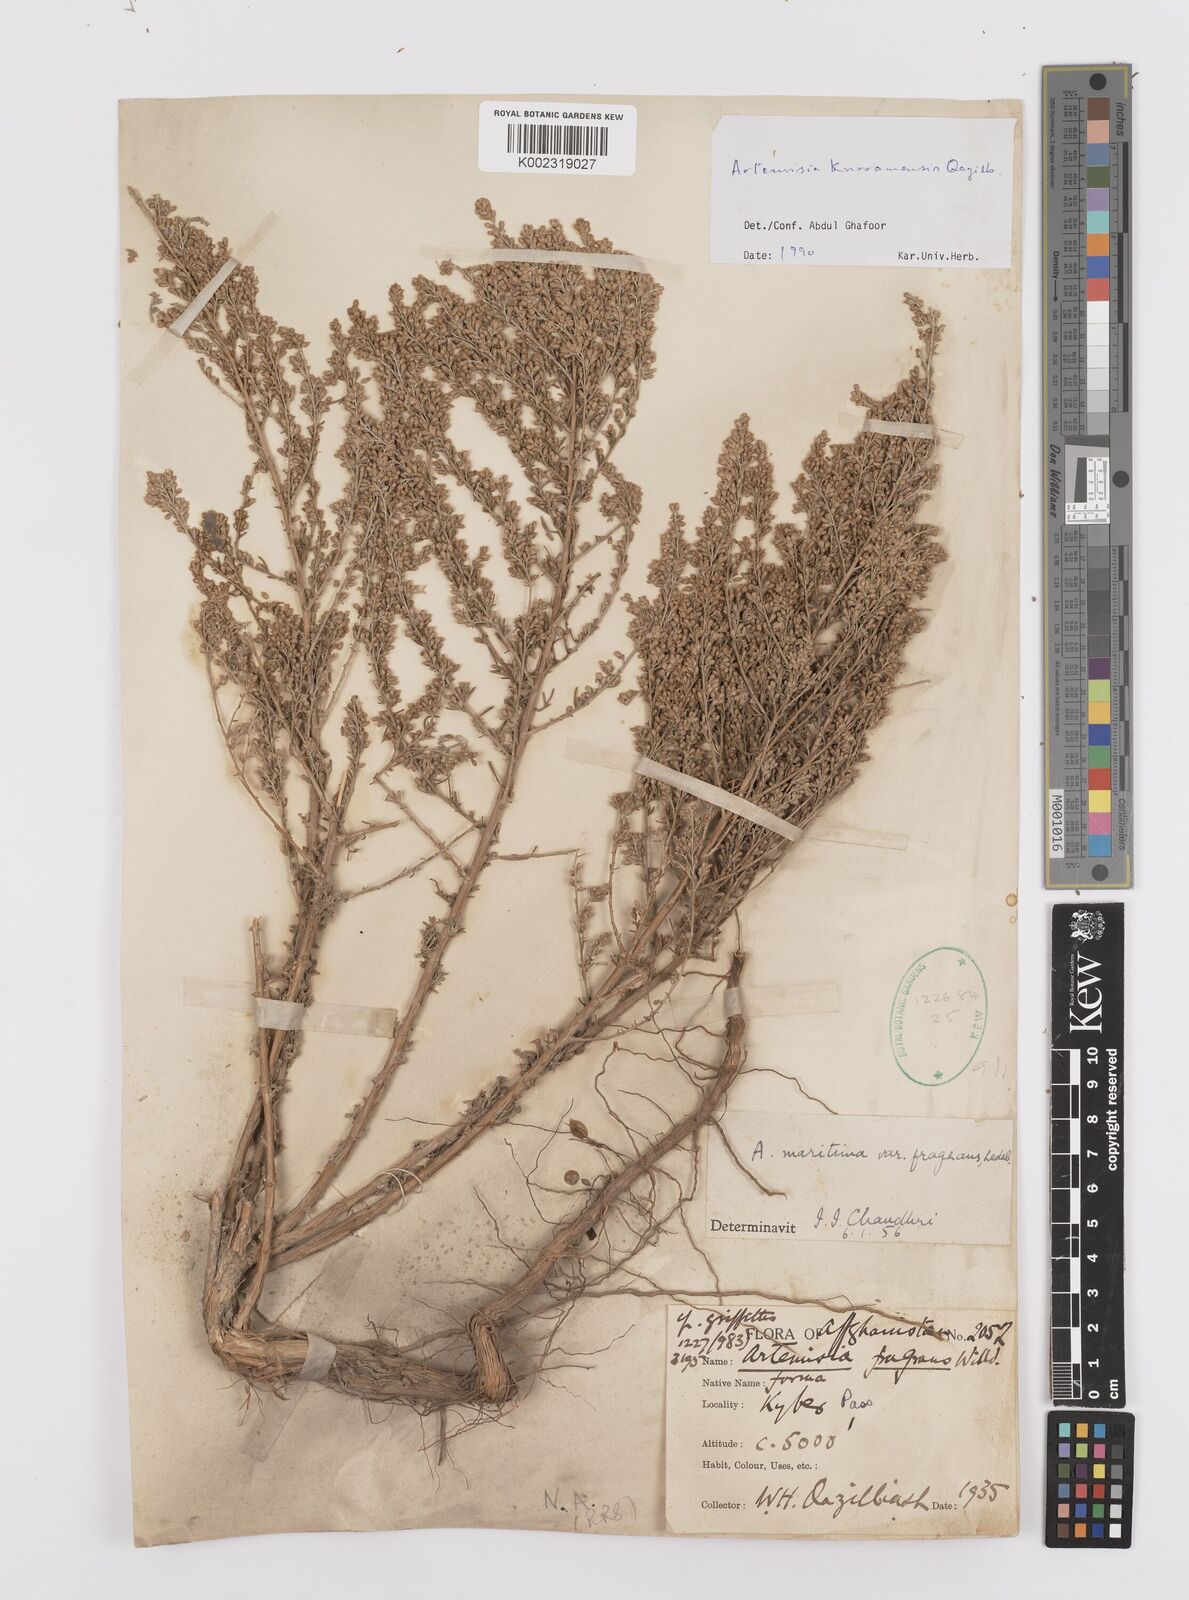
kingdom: Plantae
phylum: Tracheophyta
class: Magnoliopsida
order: Asterales
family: Asteraceae
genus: Artemisia
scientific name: Artemisia kurramensis
